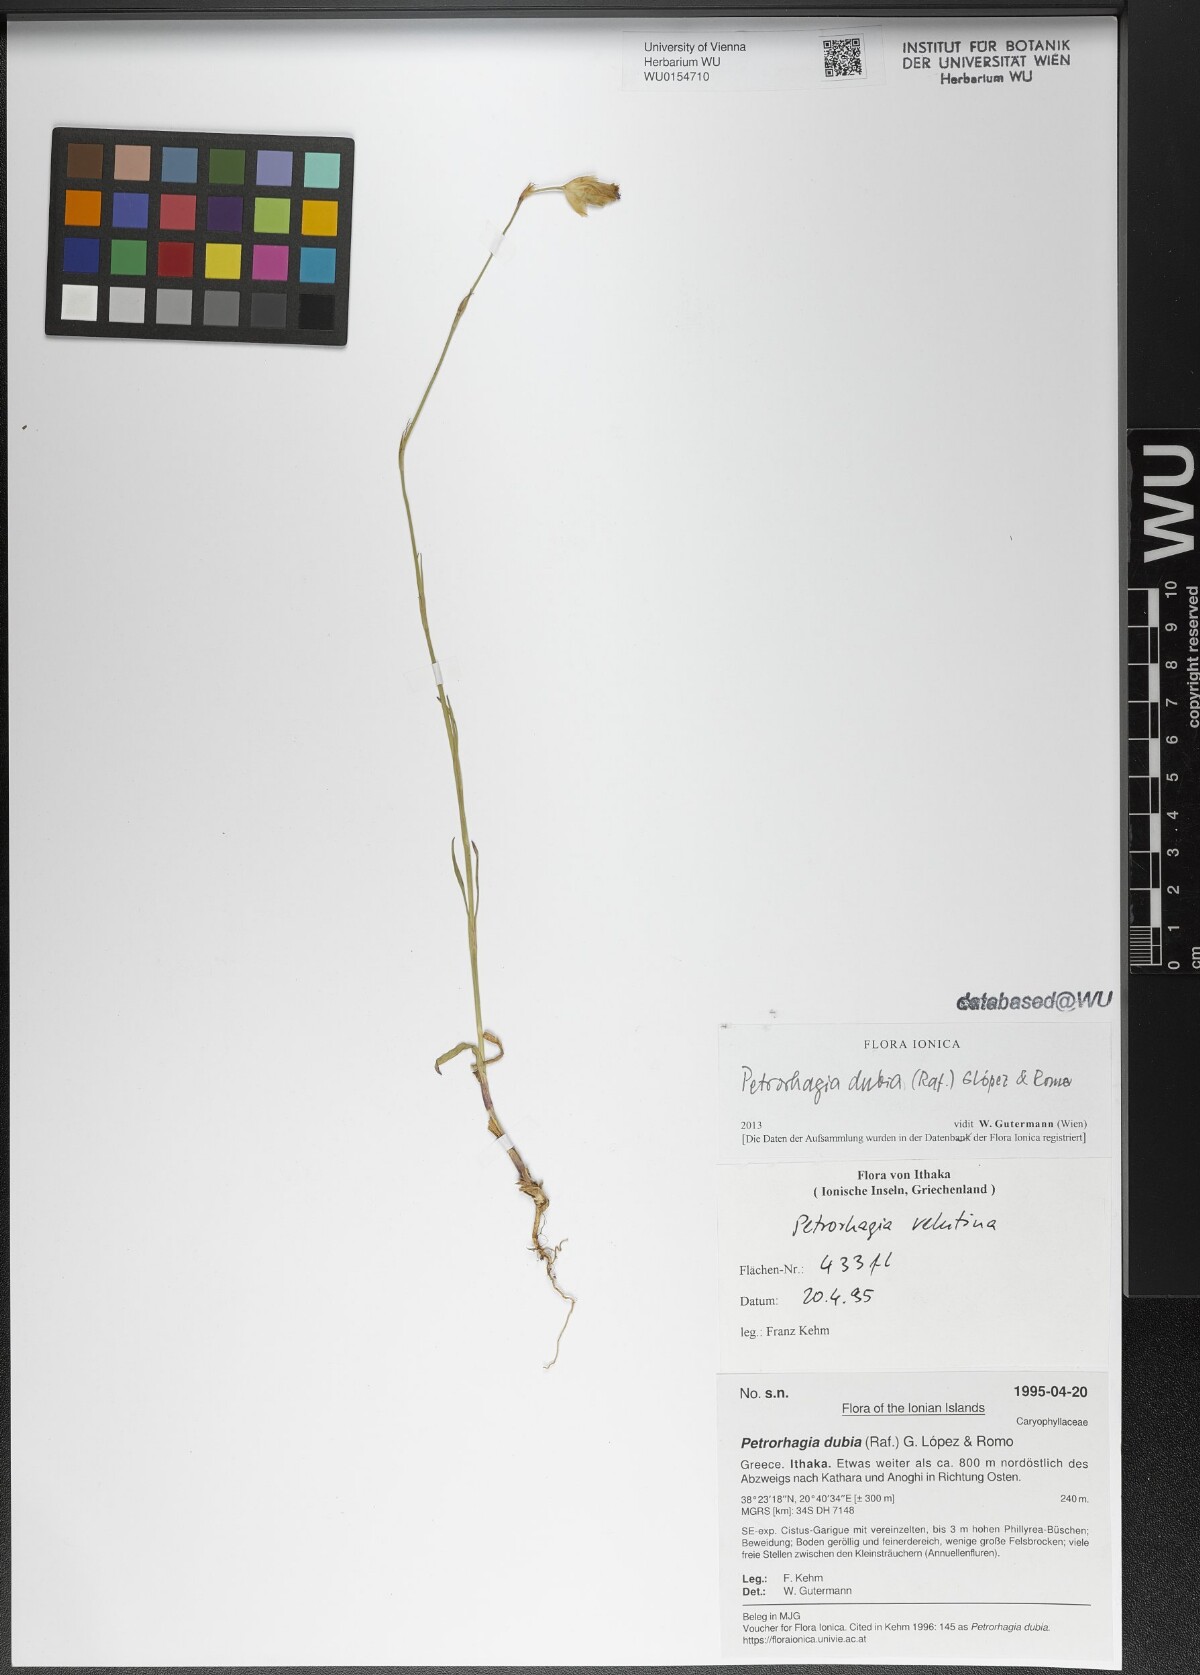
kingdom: Plantae
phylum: Tracheophyta
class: Magnoliopsida
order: Caryophyllales
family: Caryophyllaceae
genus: Petrorhagia
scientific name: Petrorhagia dubia
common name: Hairypink
